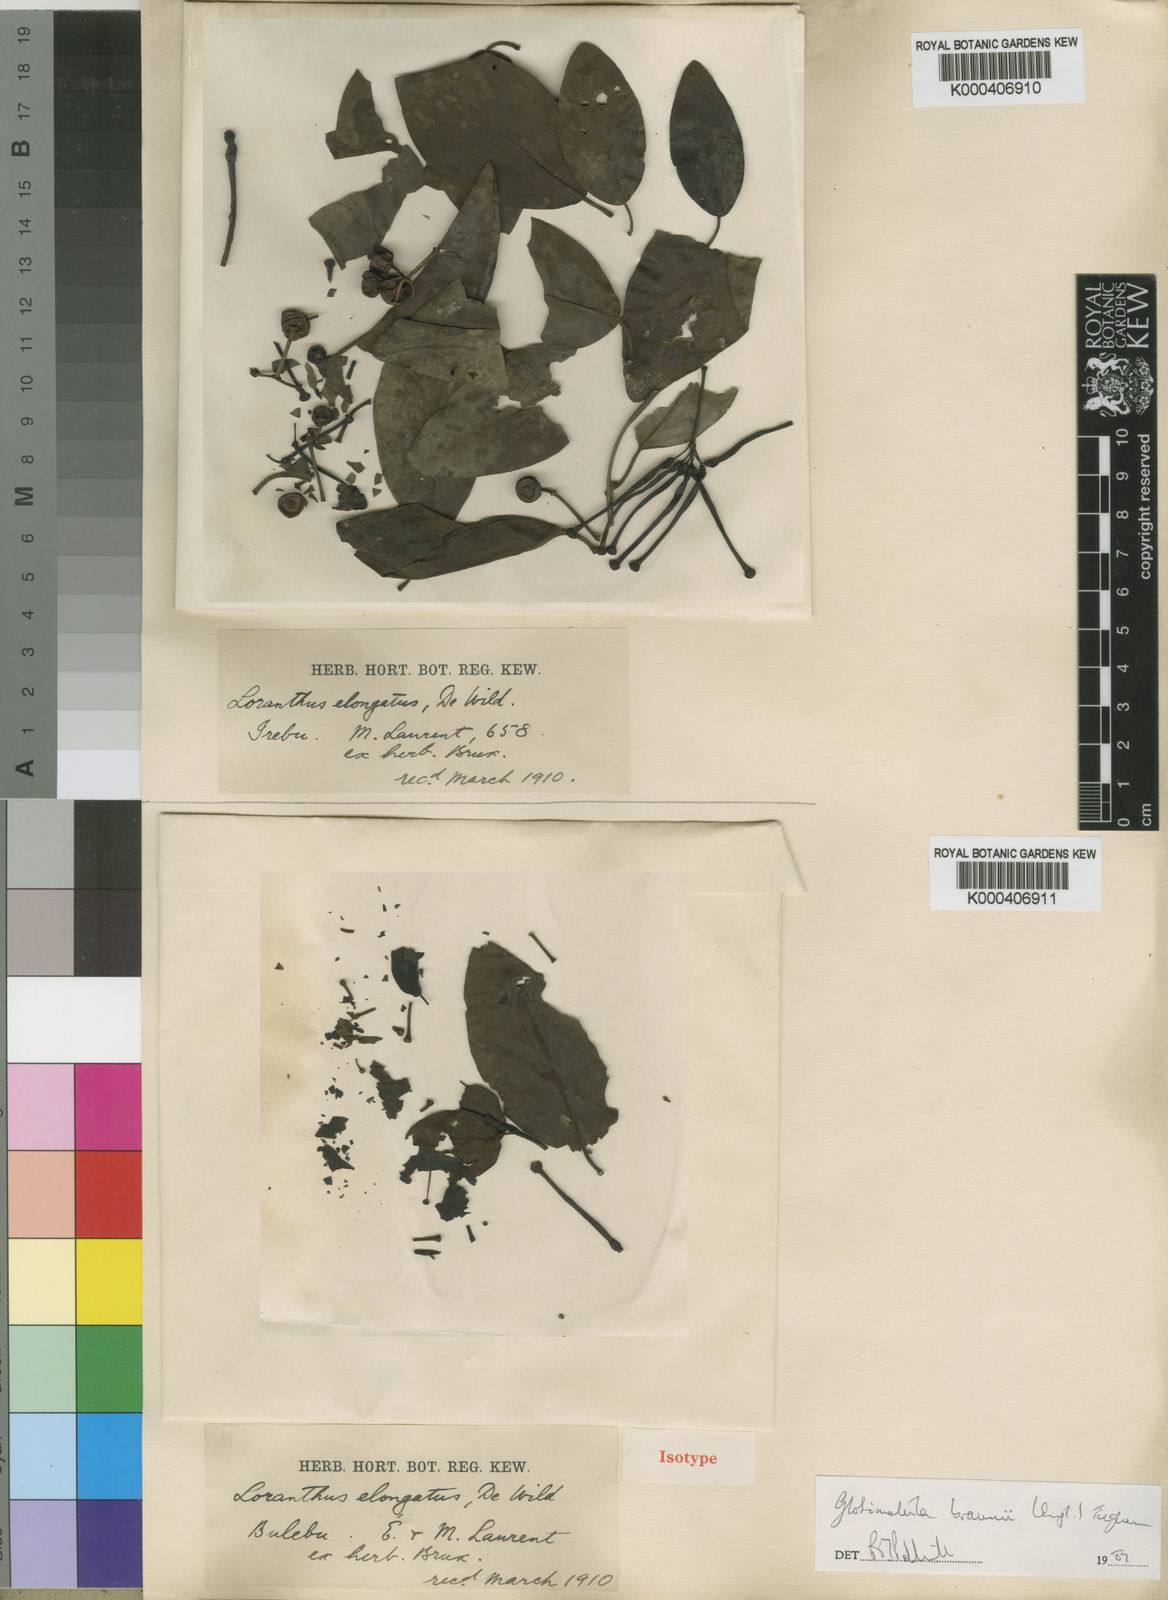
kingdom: Plantae
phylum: Tracheophyta
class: Magnoliopsida
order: Santalales
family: Loranthaceae
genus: Globimetula
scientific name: Globimetula braunii
